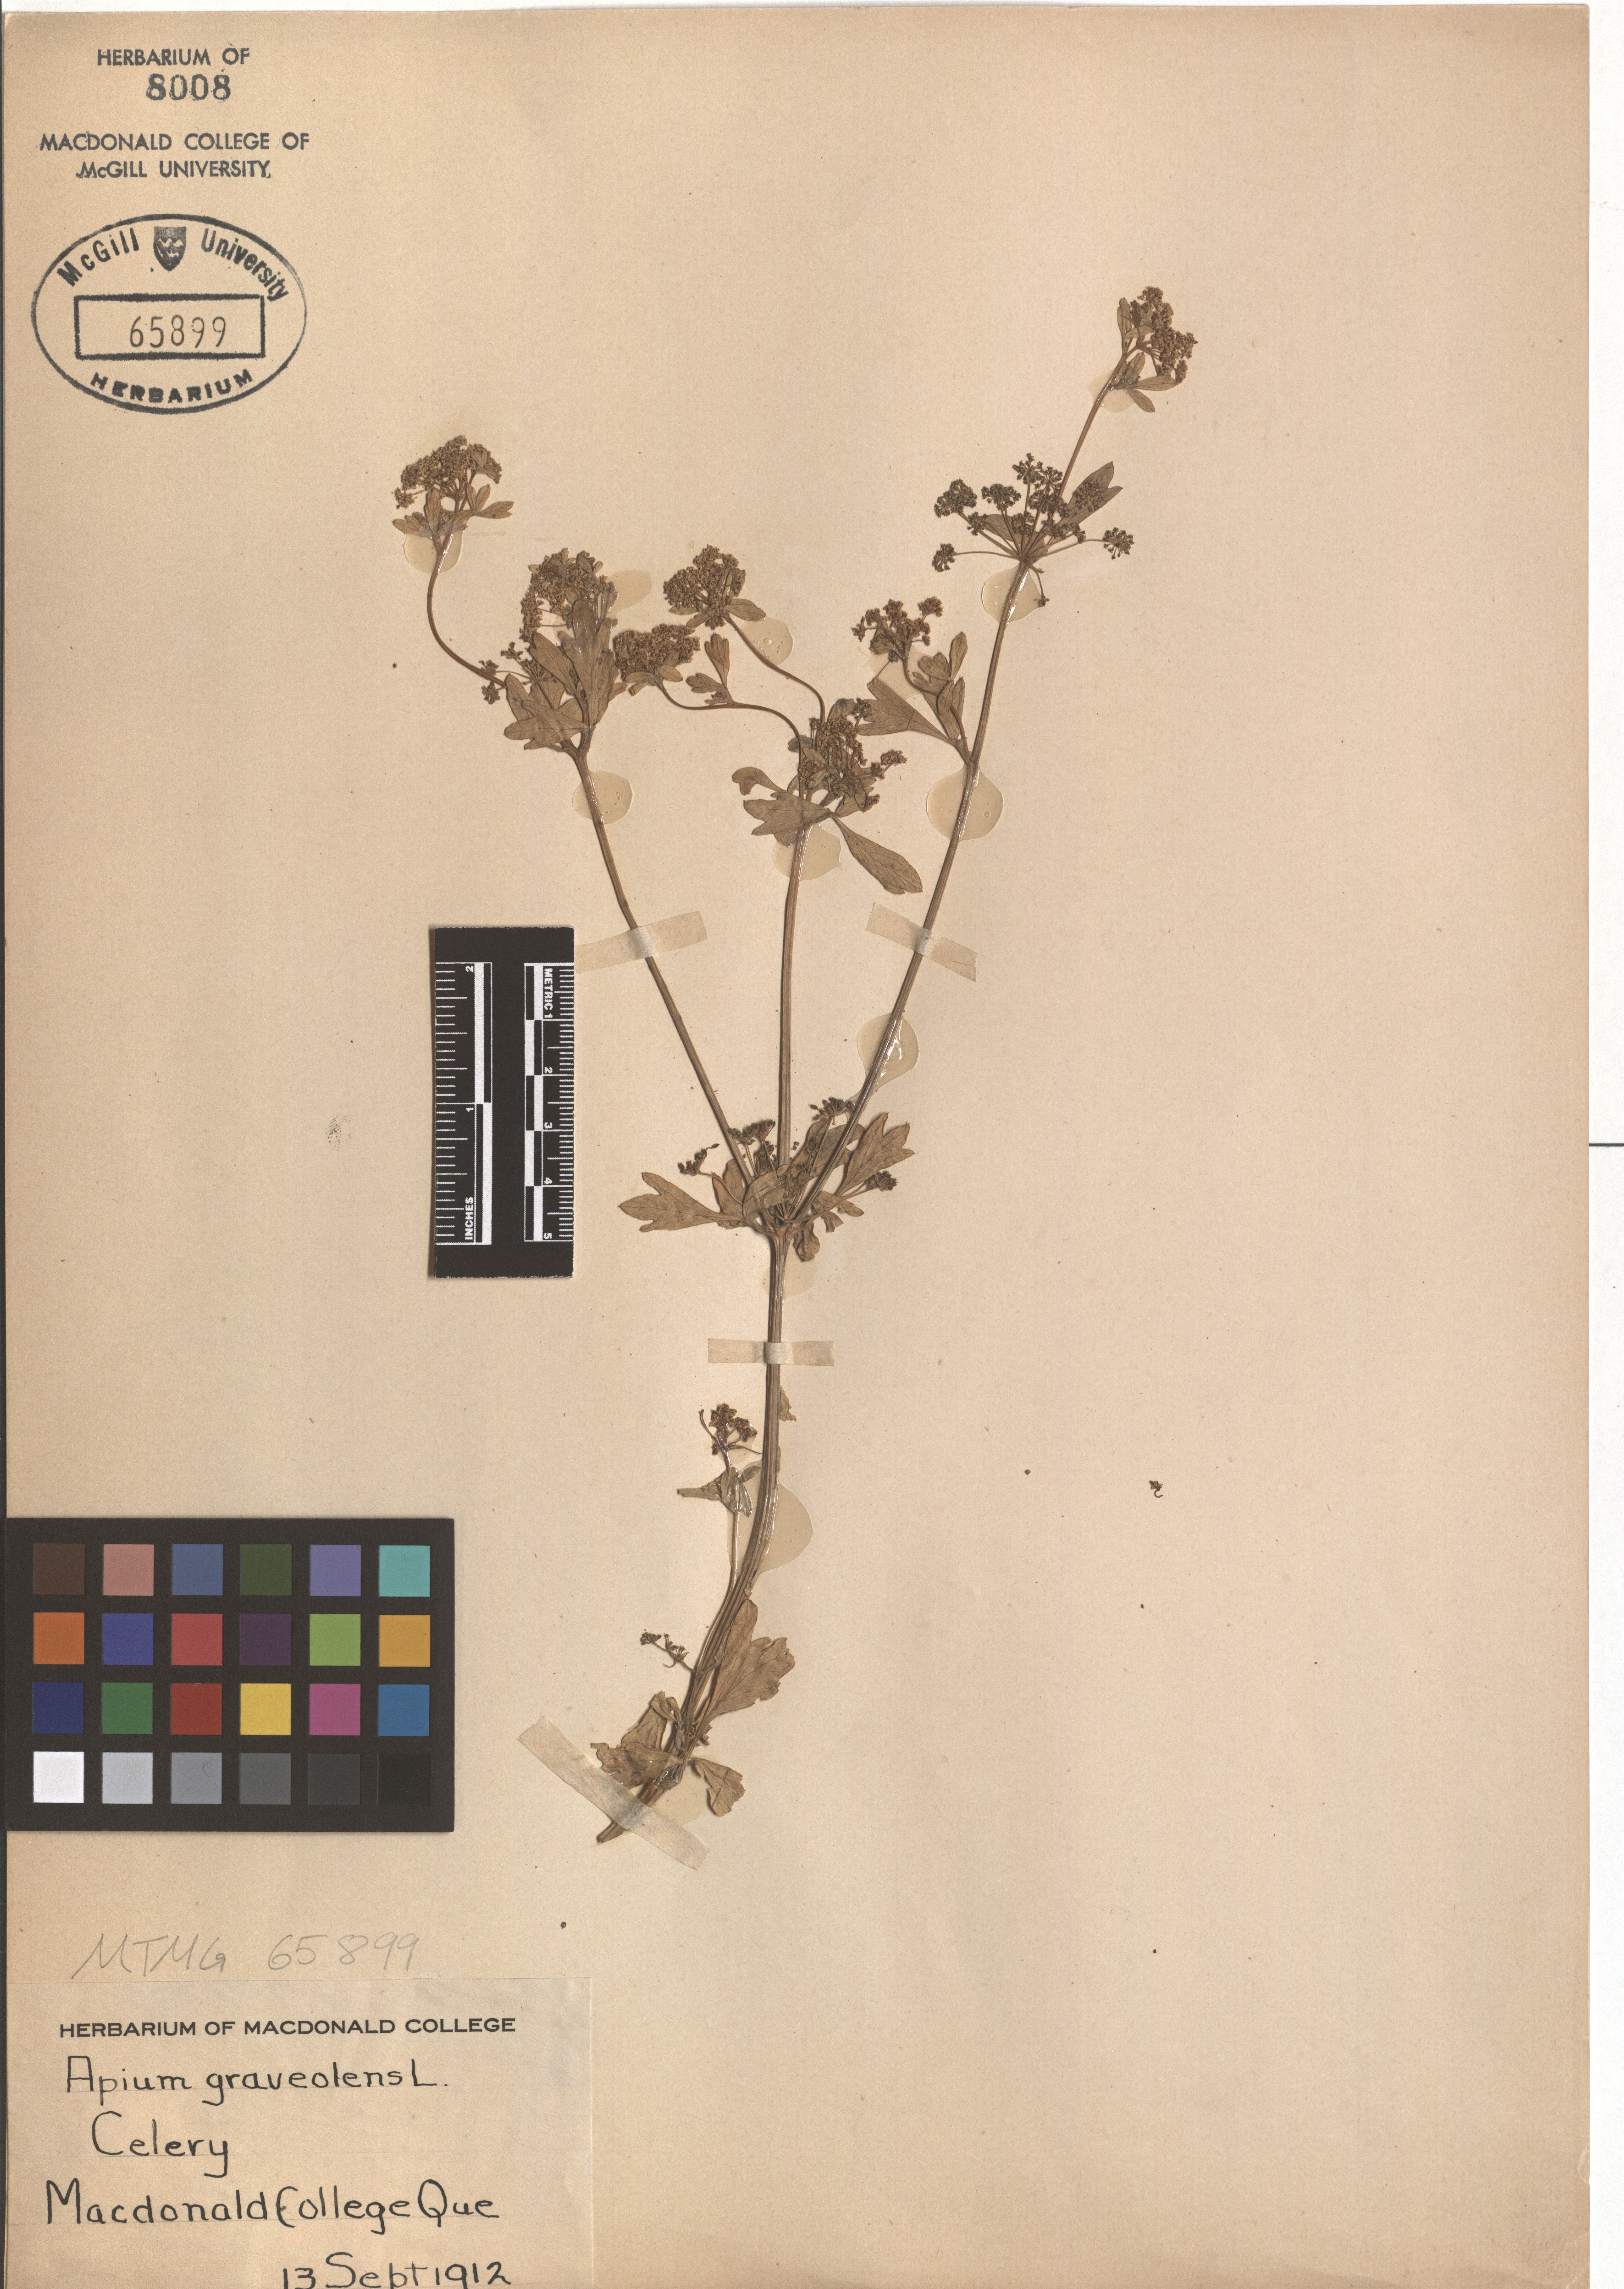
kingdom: Plantae
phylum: Tracheophyta
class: Magnoliopsida
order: Apiales
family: Apiaceae
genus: Apium
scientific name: Apium graveolens
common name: Wild celery
